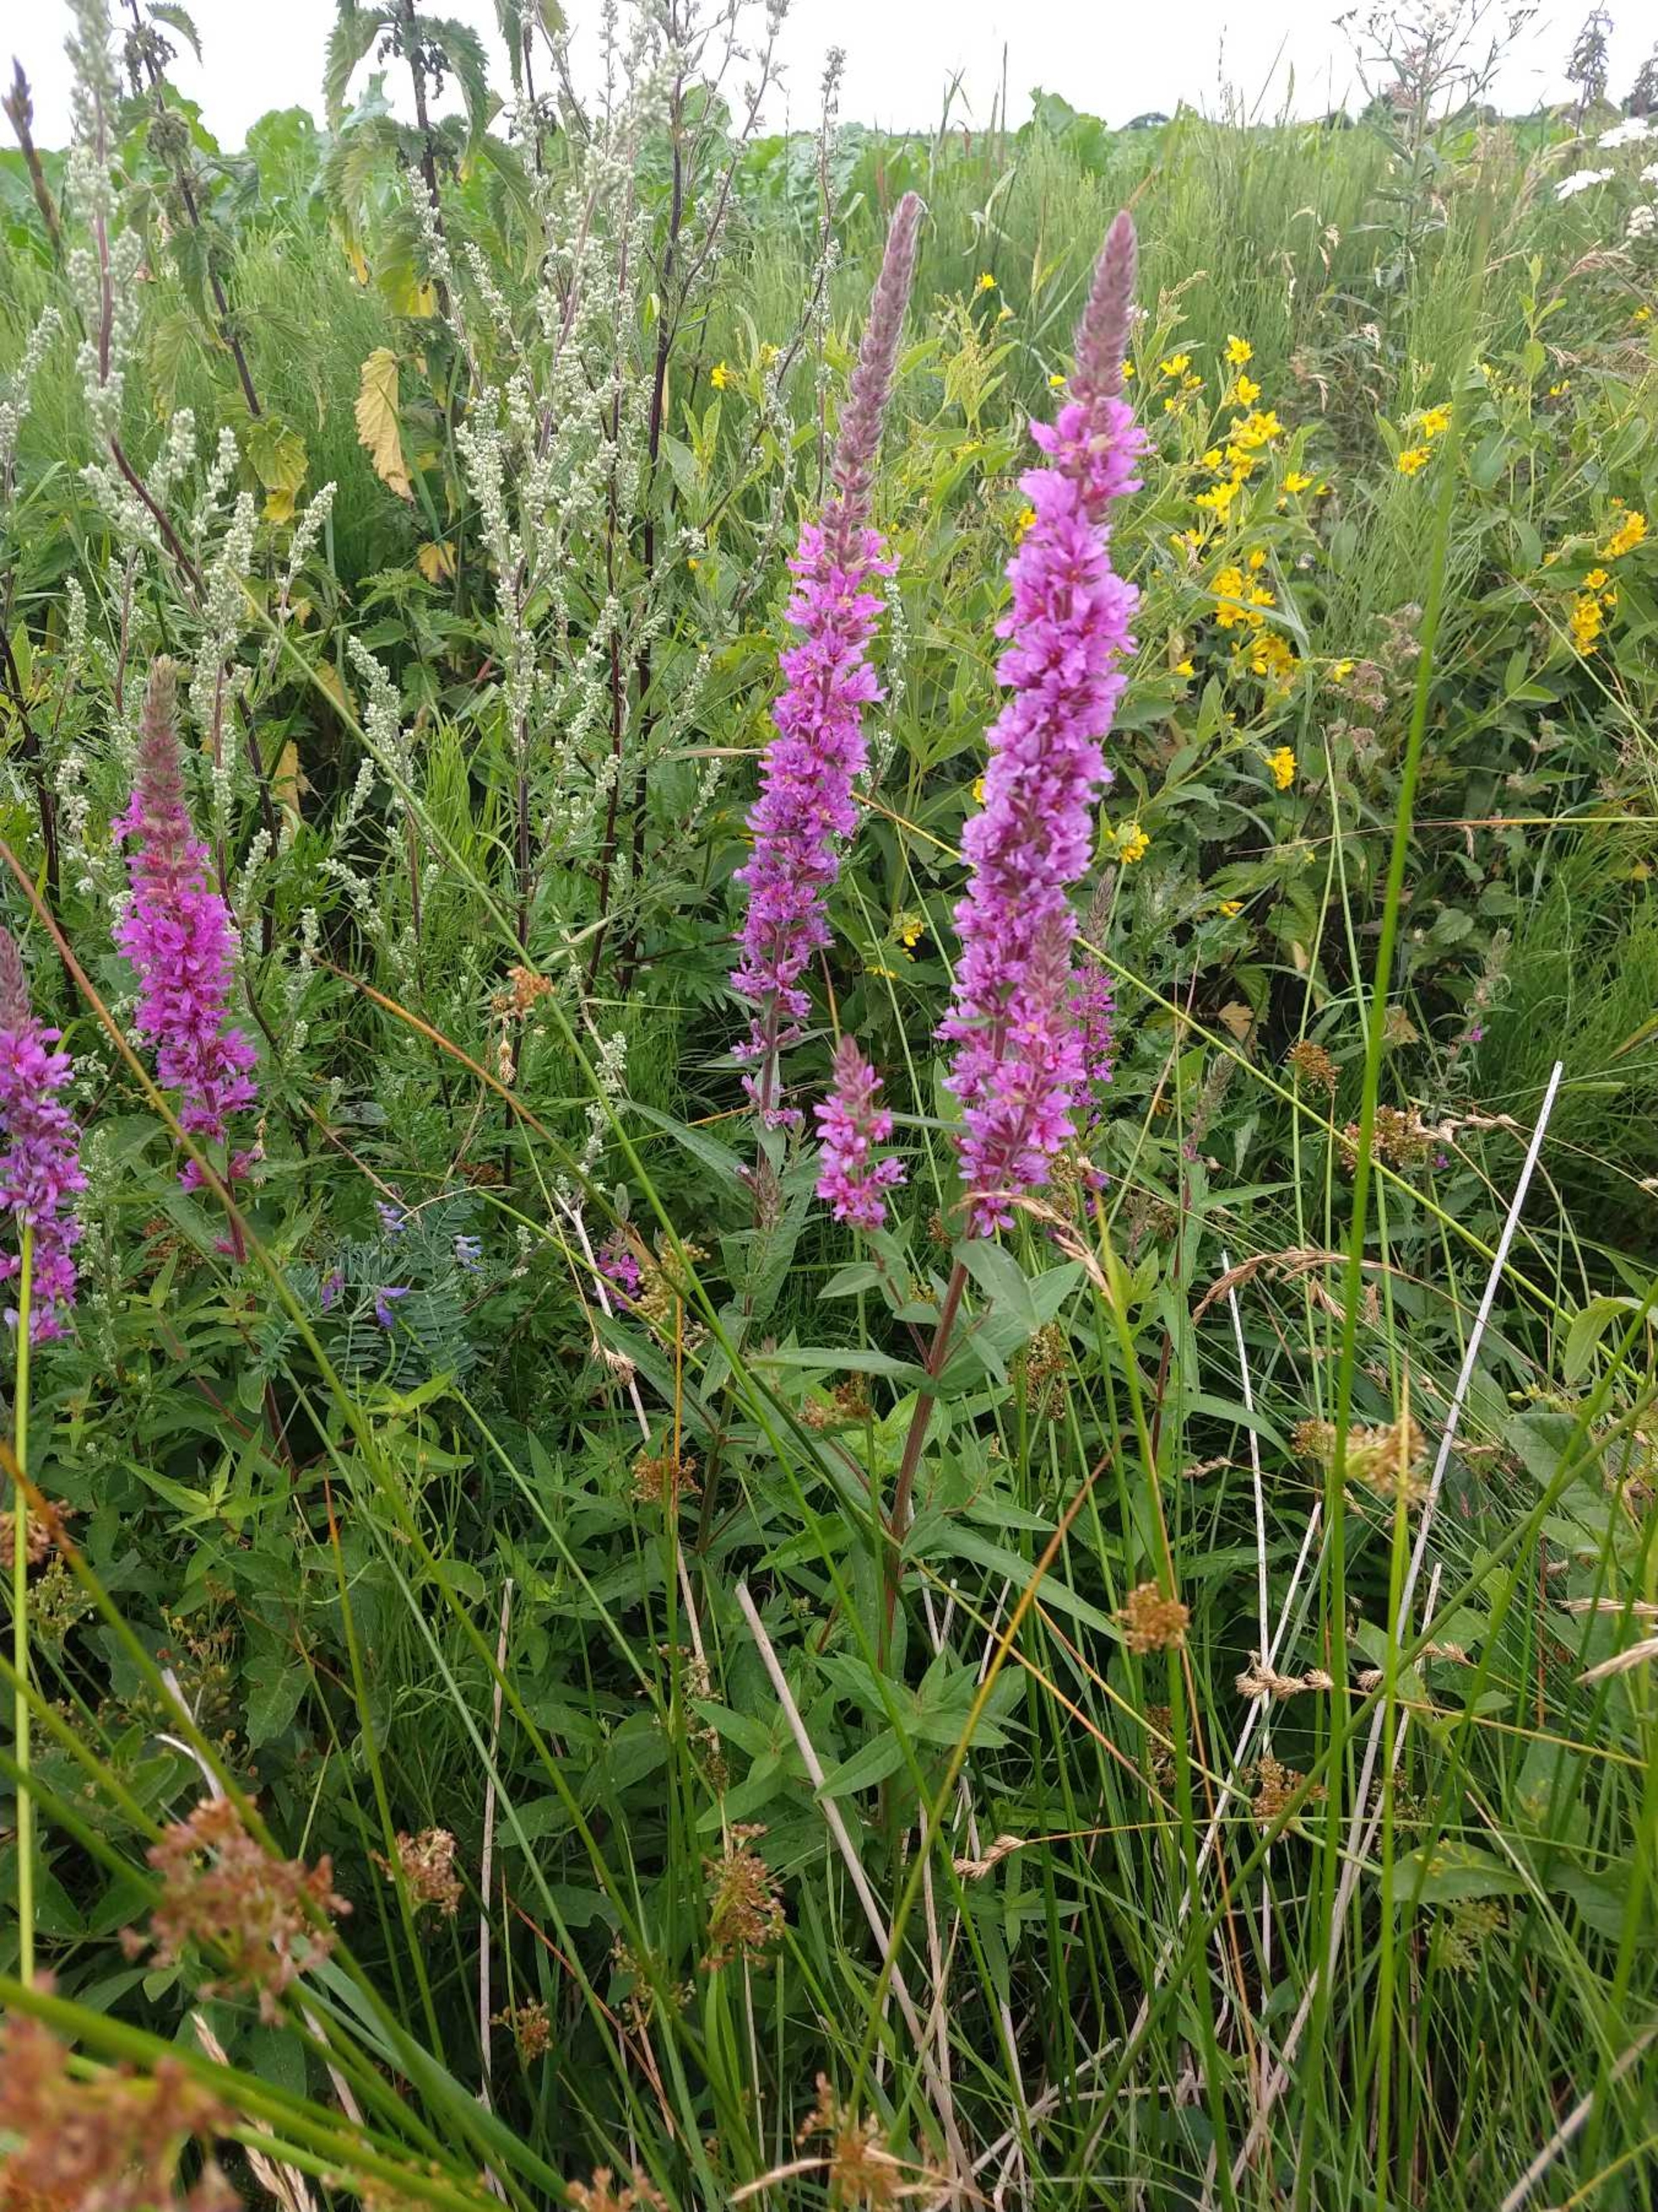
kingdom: Plantae
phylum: Tracheophyta
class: Magnoliopsida
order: Myrtales
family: Lythraceae
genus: Lythrum
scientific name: Lythrum salicaria
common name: Kattehale
